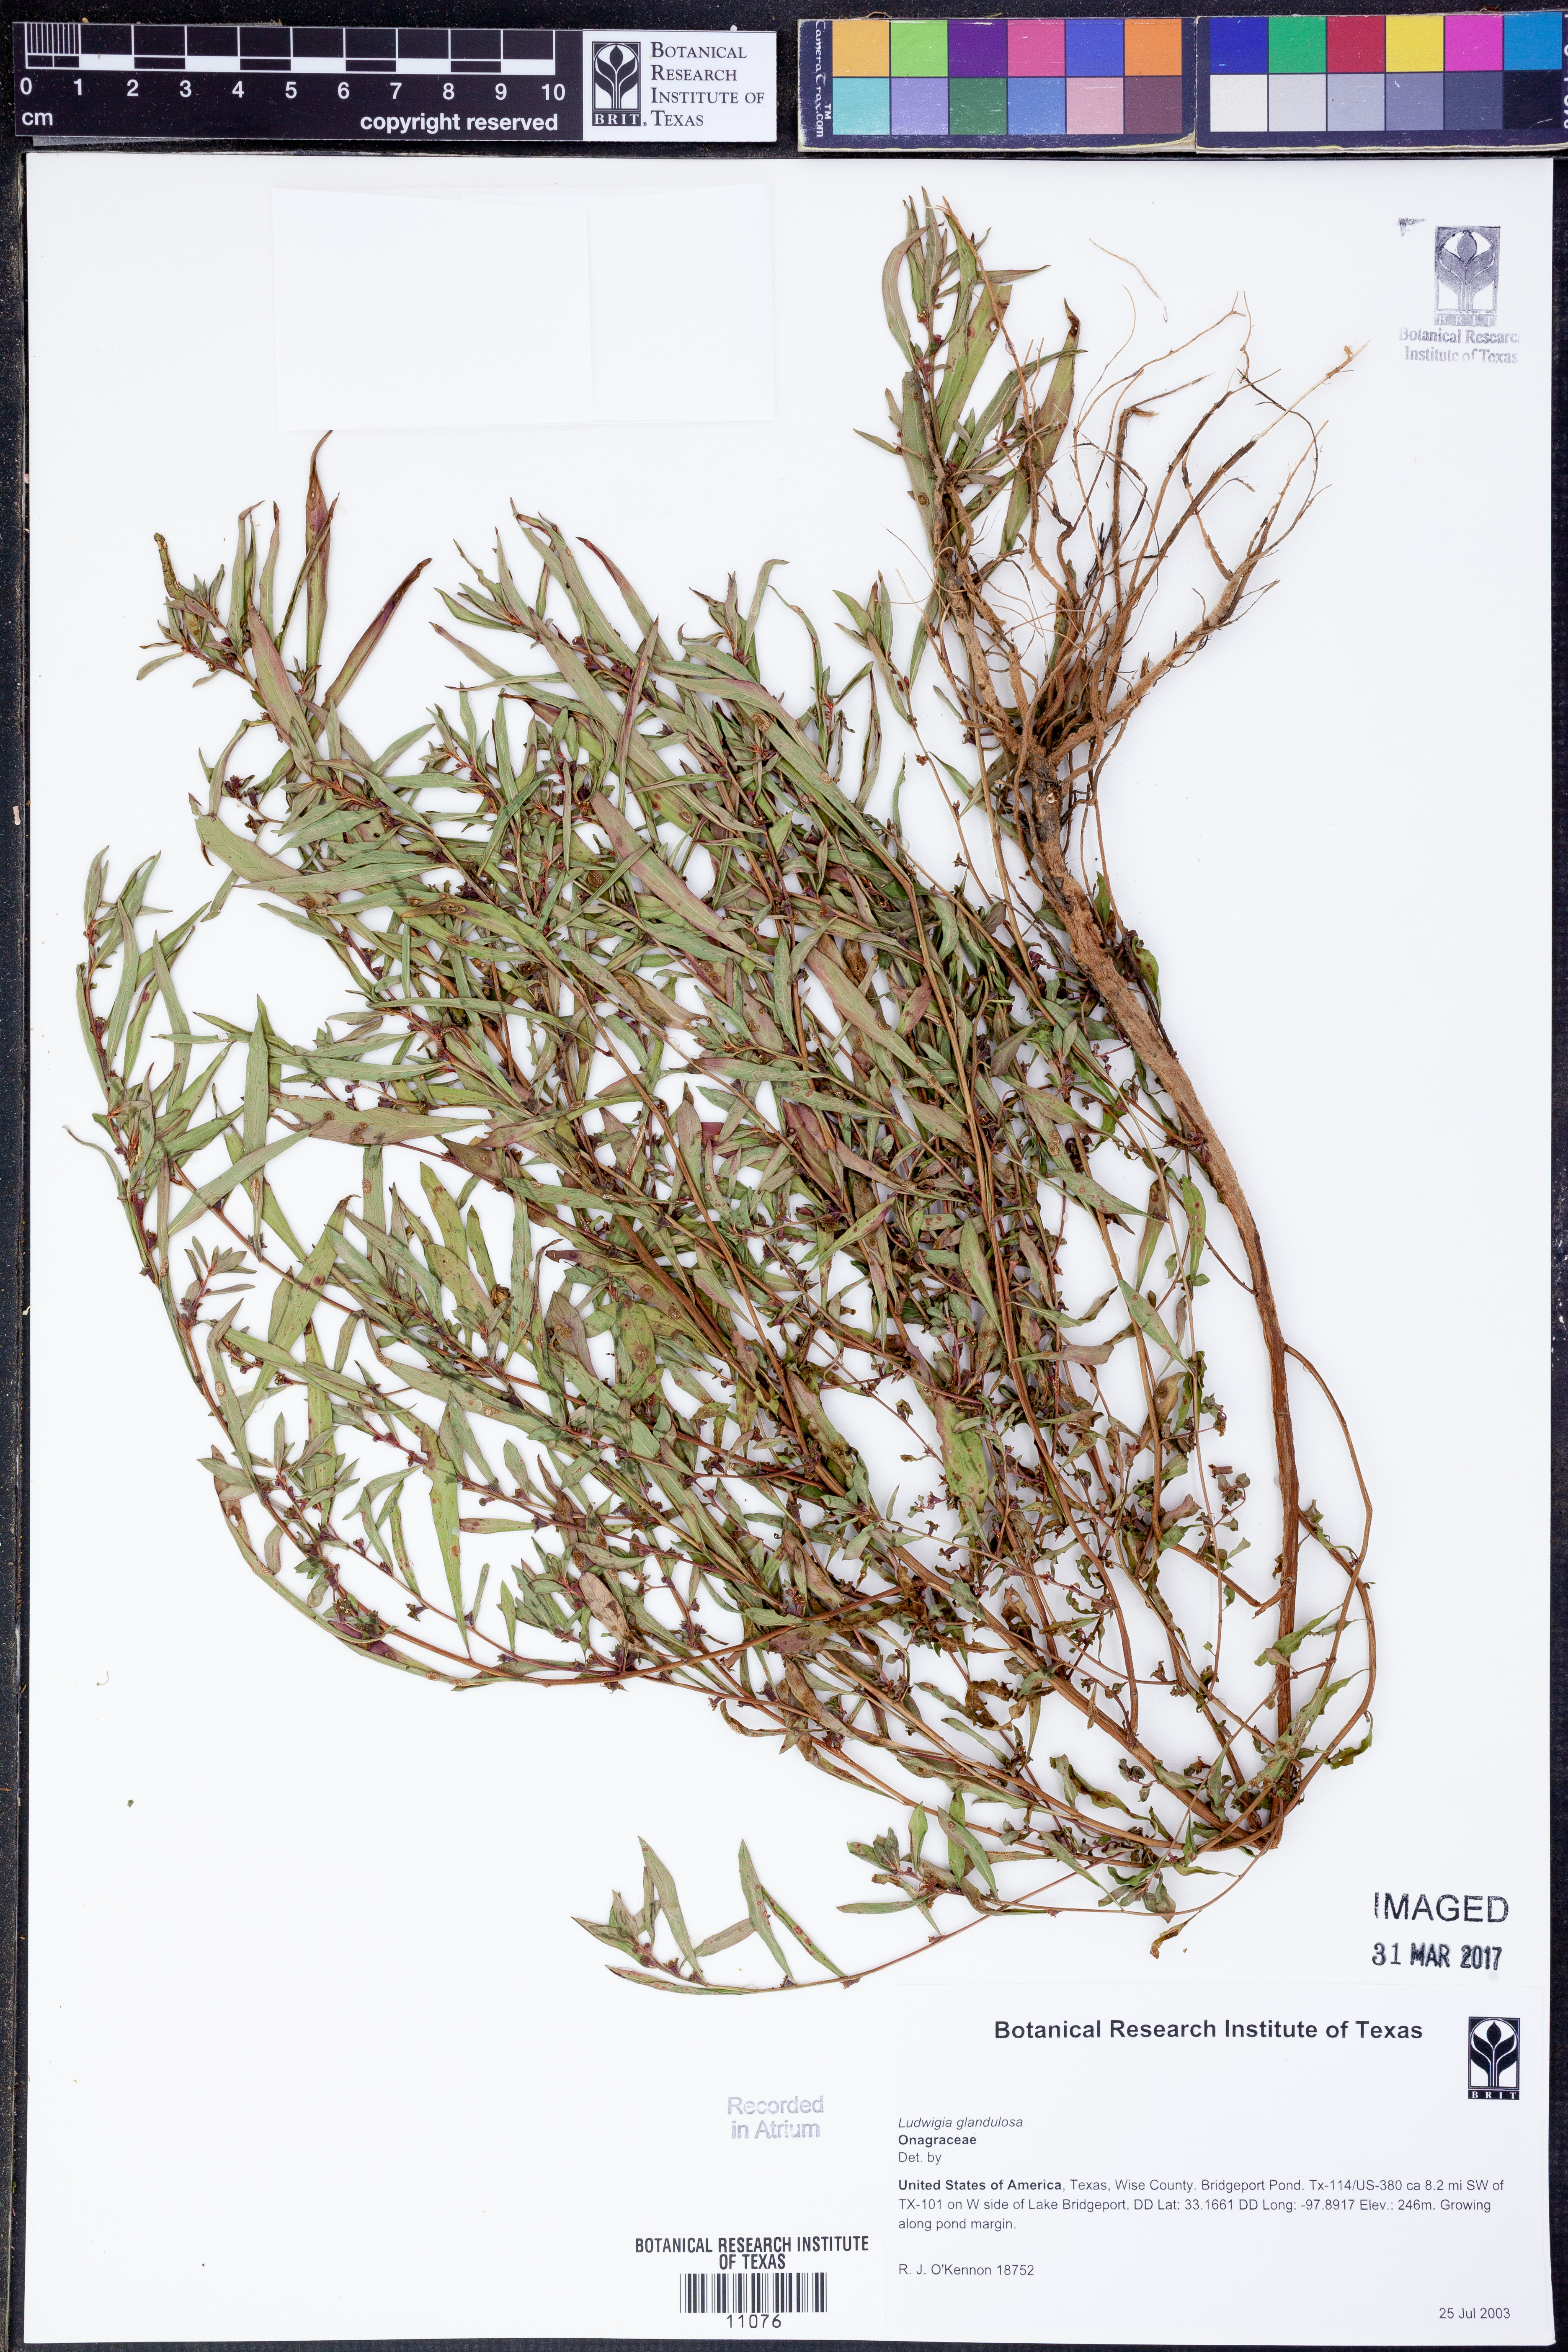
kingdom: Plantae
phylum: Tracheophyta
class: Magnoliopsida
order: Myrtales
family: Onagraceae
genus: Ludwigia
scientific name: Ludwigia glandulosa
